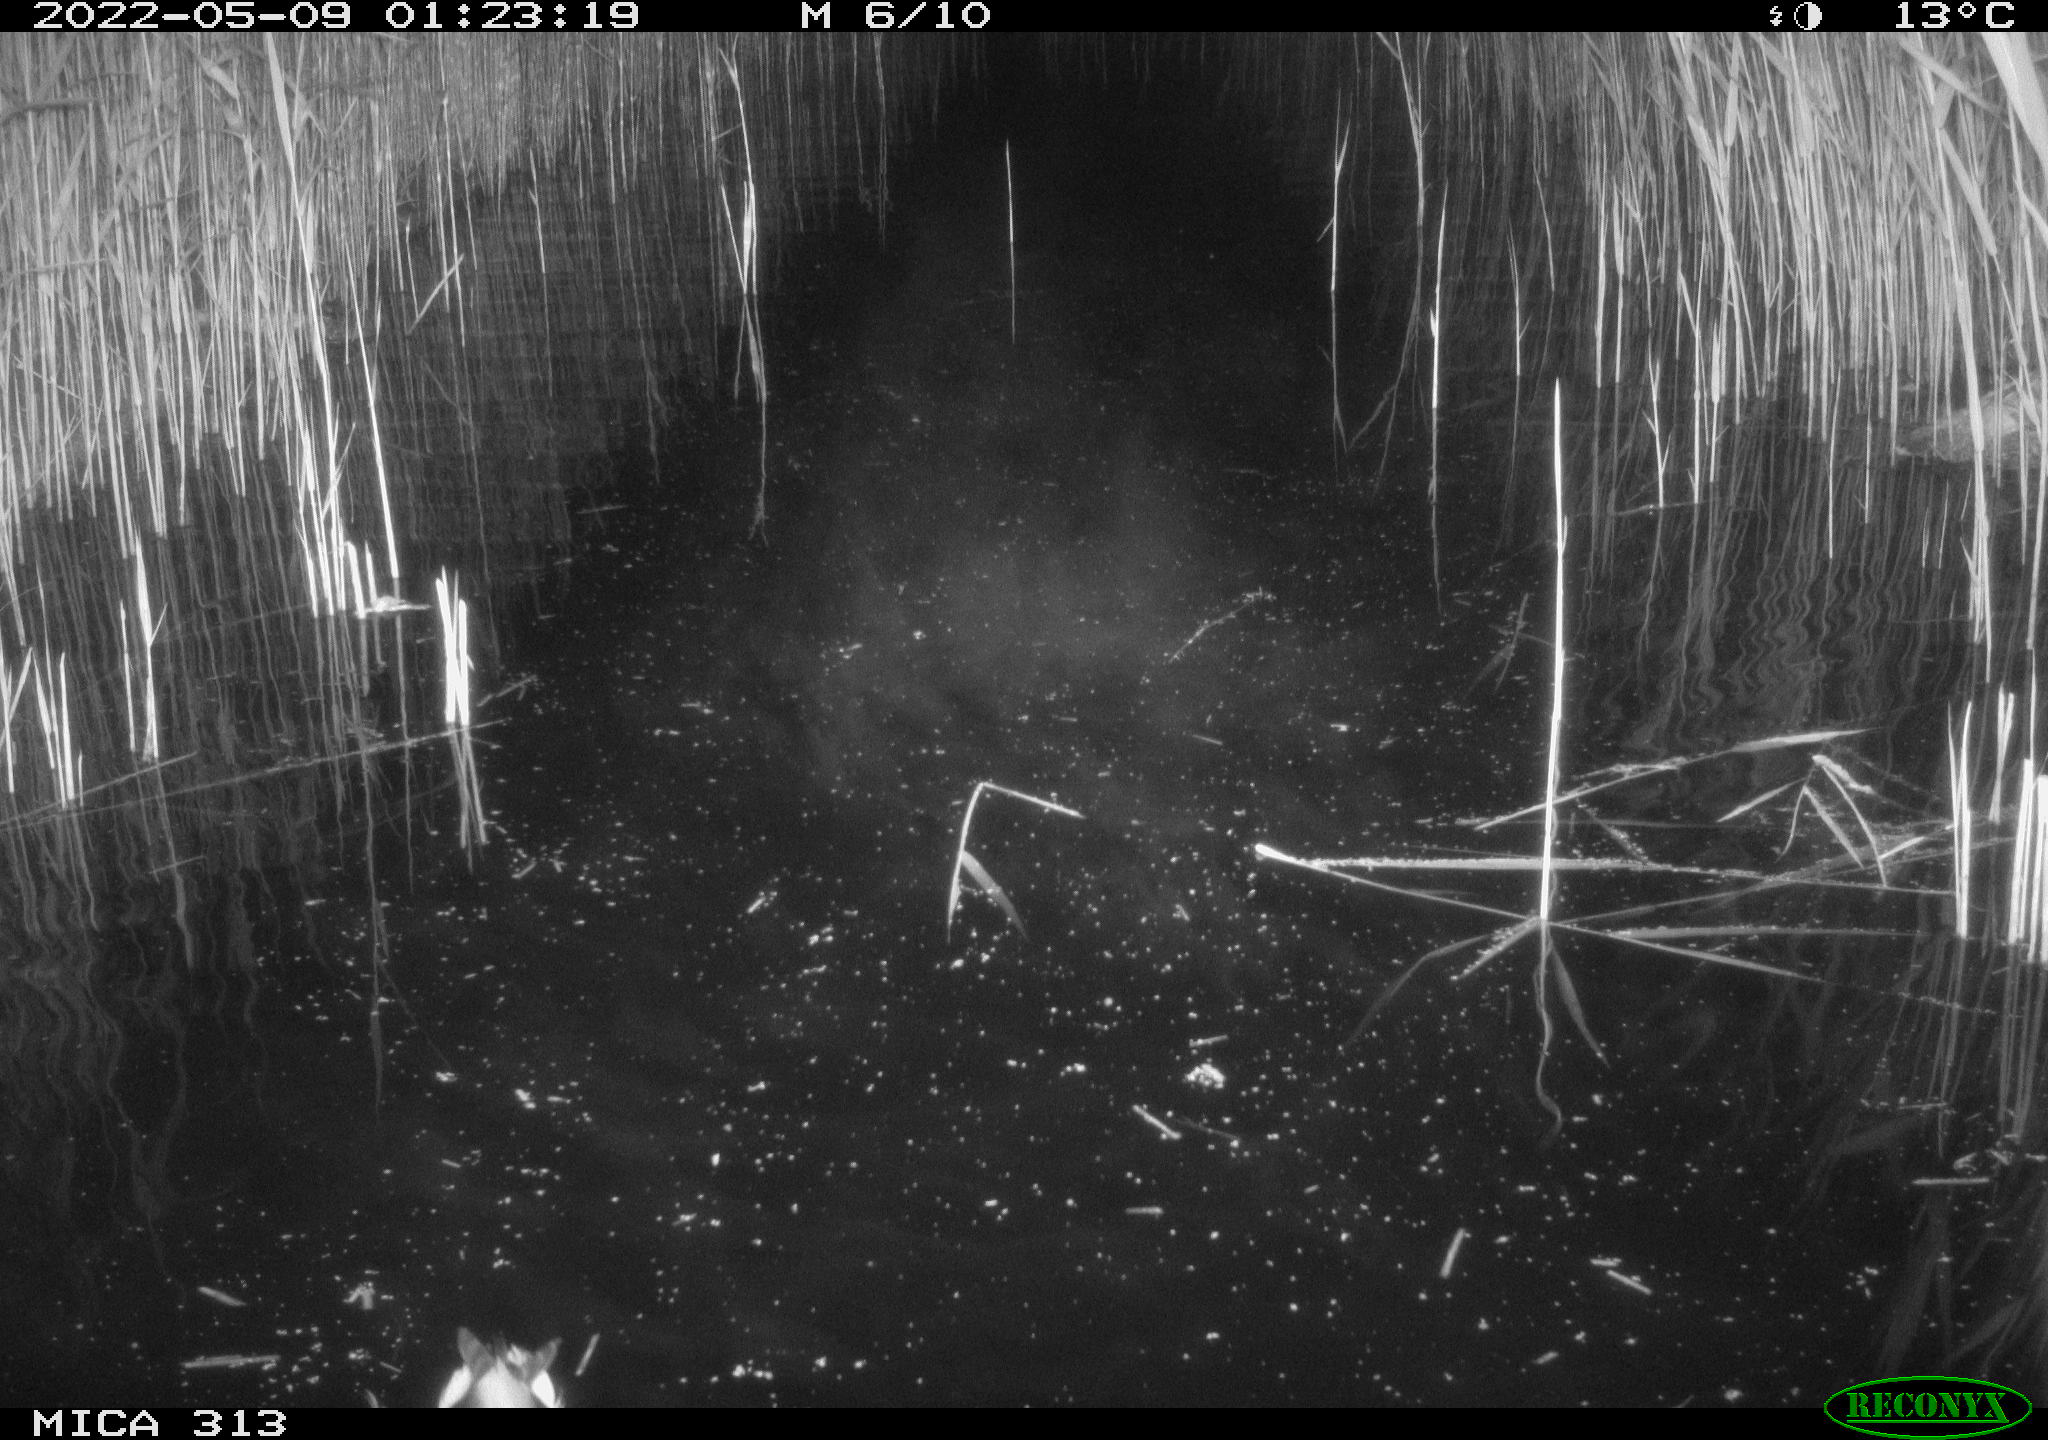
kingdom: Animalia
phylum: Chordata
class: Aves
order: Anseriformes
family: Anatidae
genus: Anas
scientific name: Anas platyrhynchos
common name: Mallard
